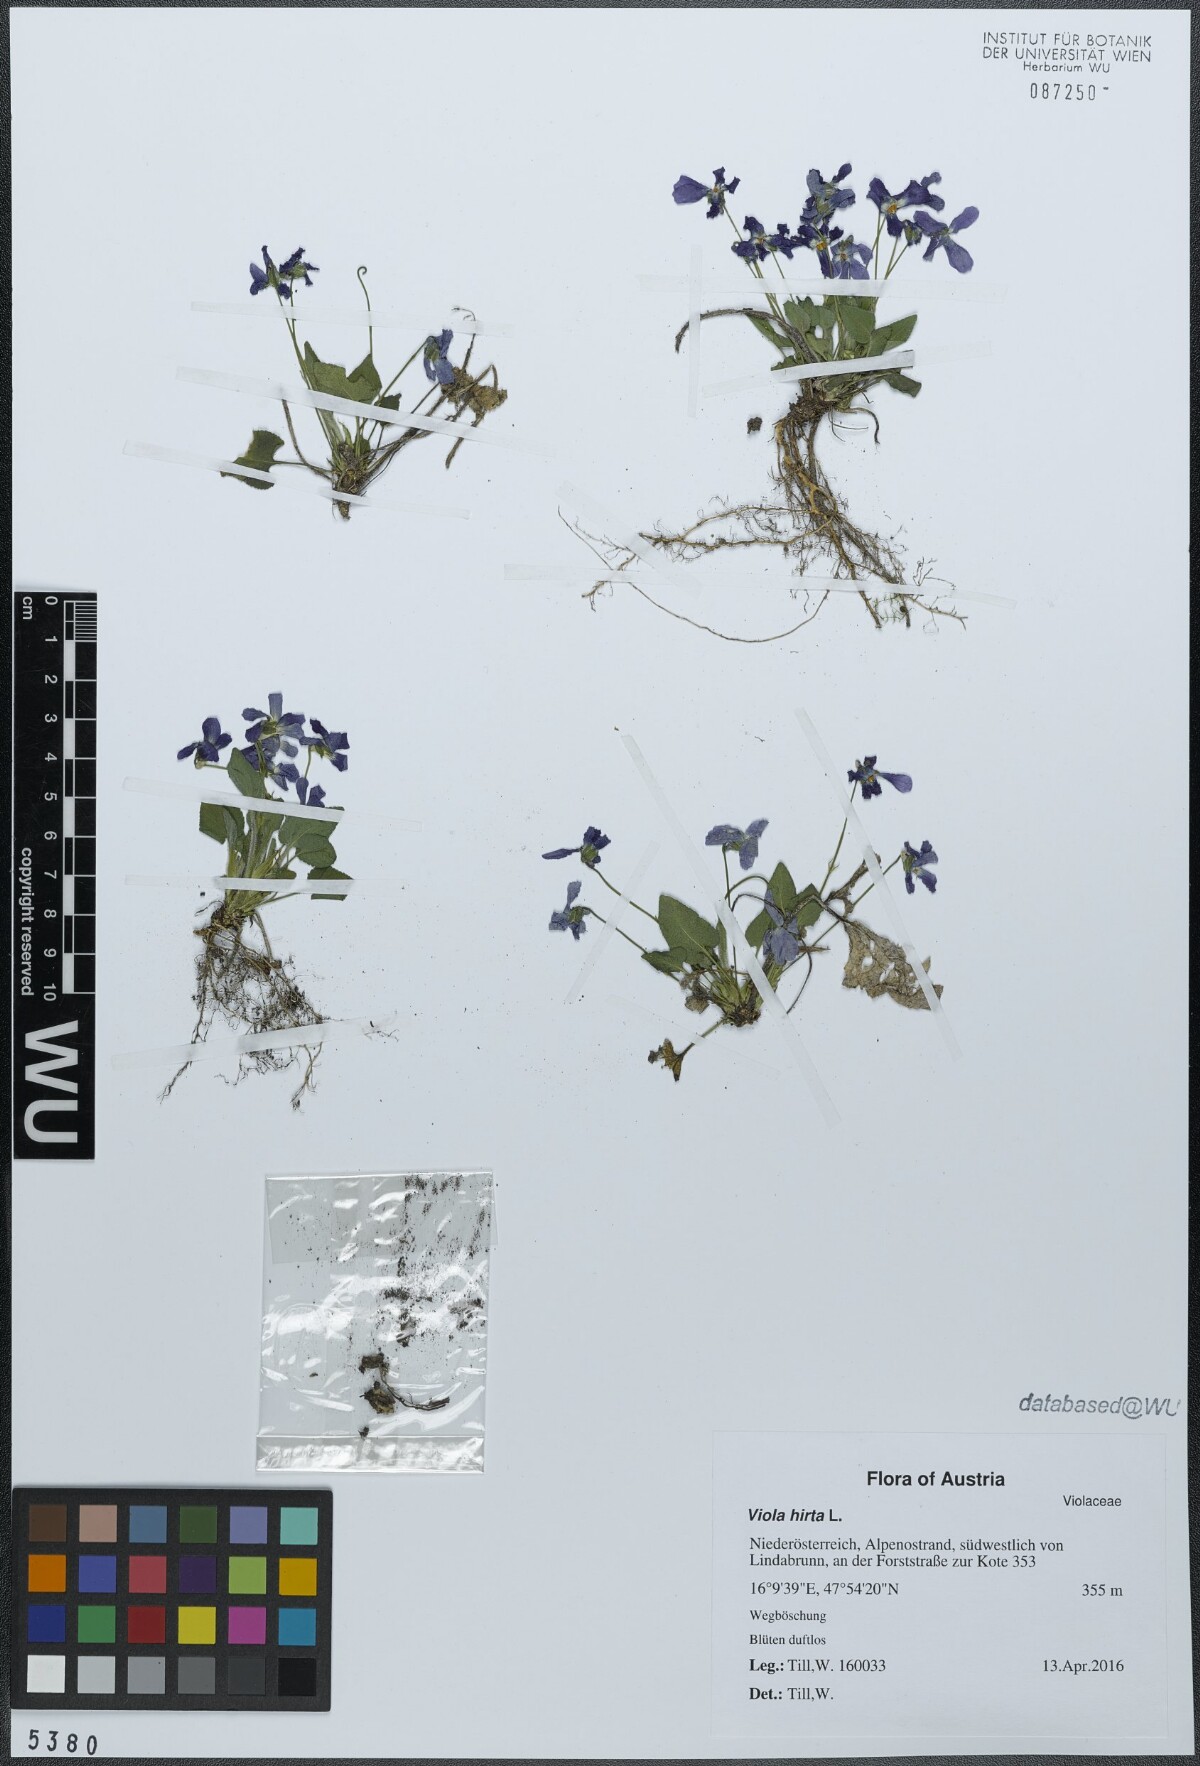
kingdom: Plantae
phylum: Tracheophyta
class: Magnoliopsida
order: Malpighiales
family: Violaceae
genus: Viola
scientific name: Viola hirta
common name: Hairy violet
